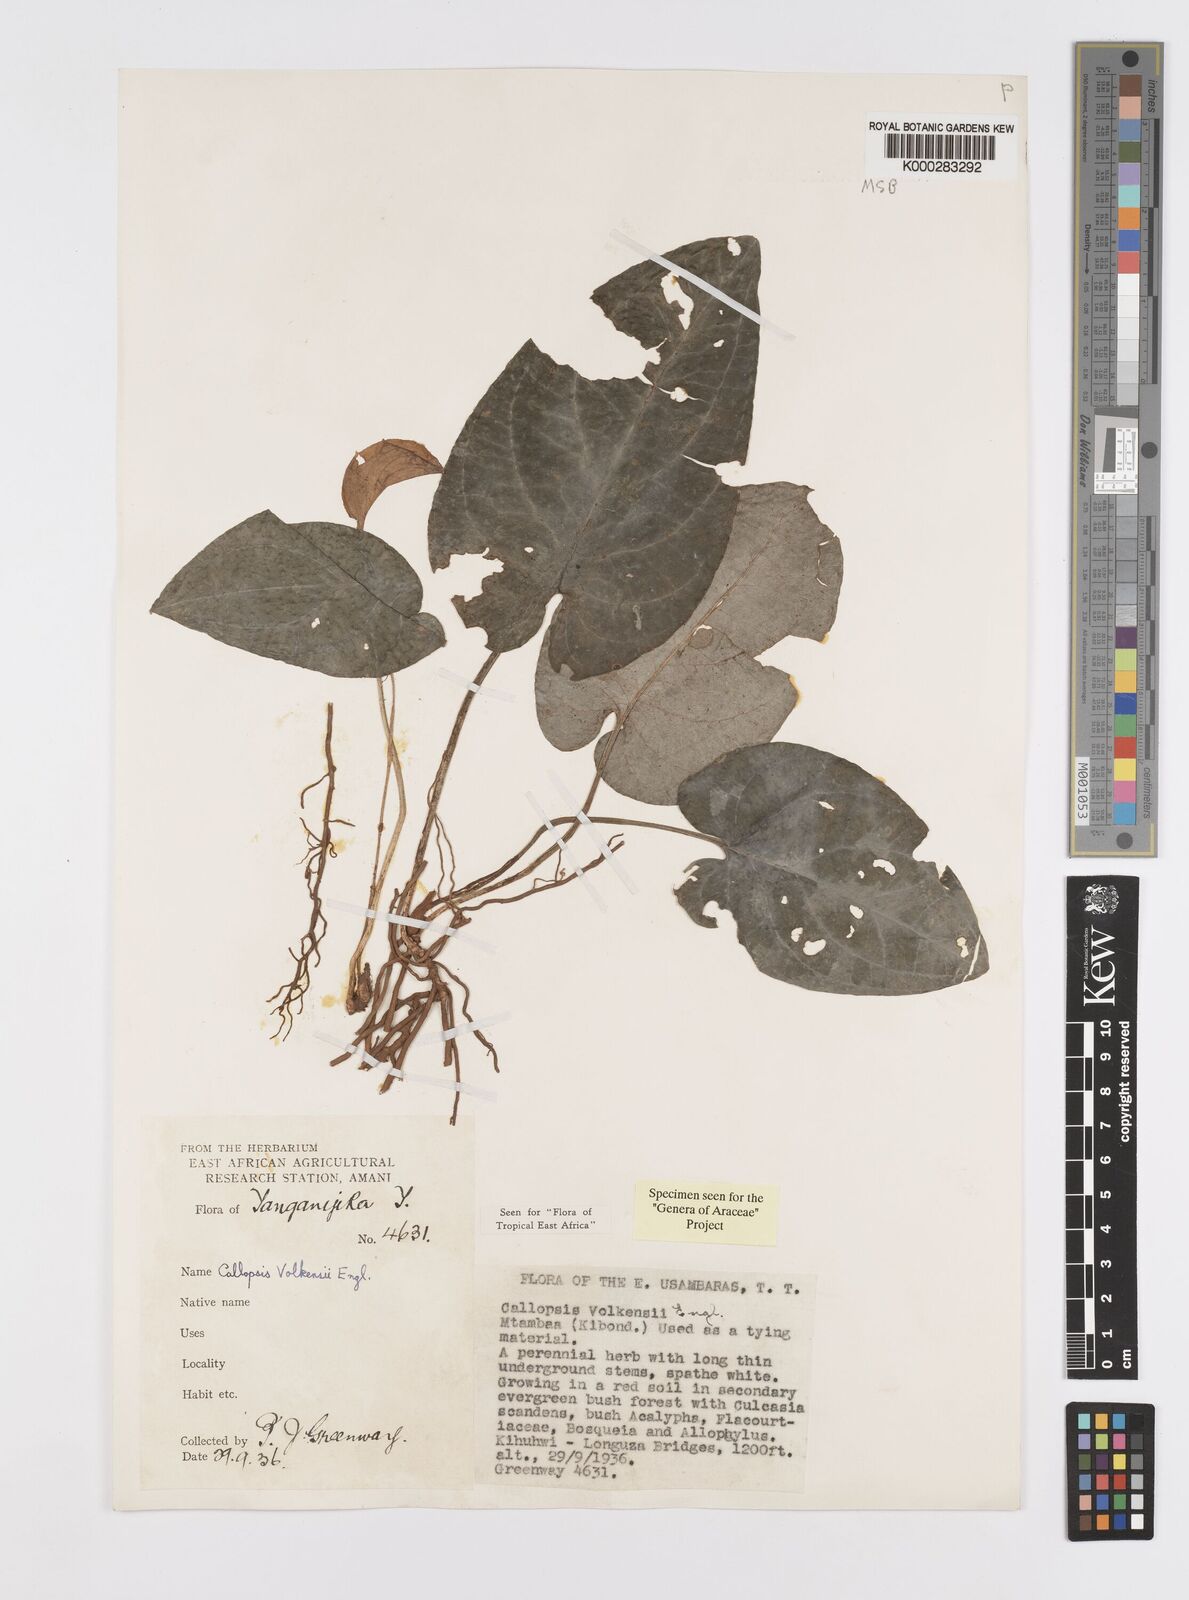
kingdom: Plantae
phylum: Tracheophyta
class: Liliopsida
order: Alismatales
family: Araceae
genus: Callopsis
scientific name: Callopsis volkensii
